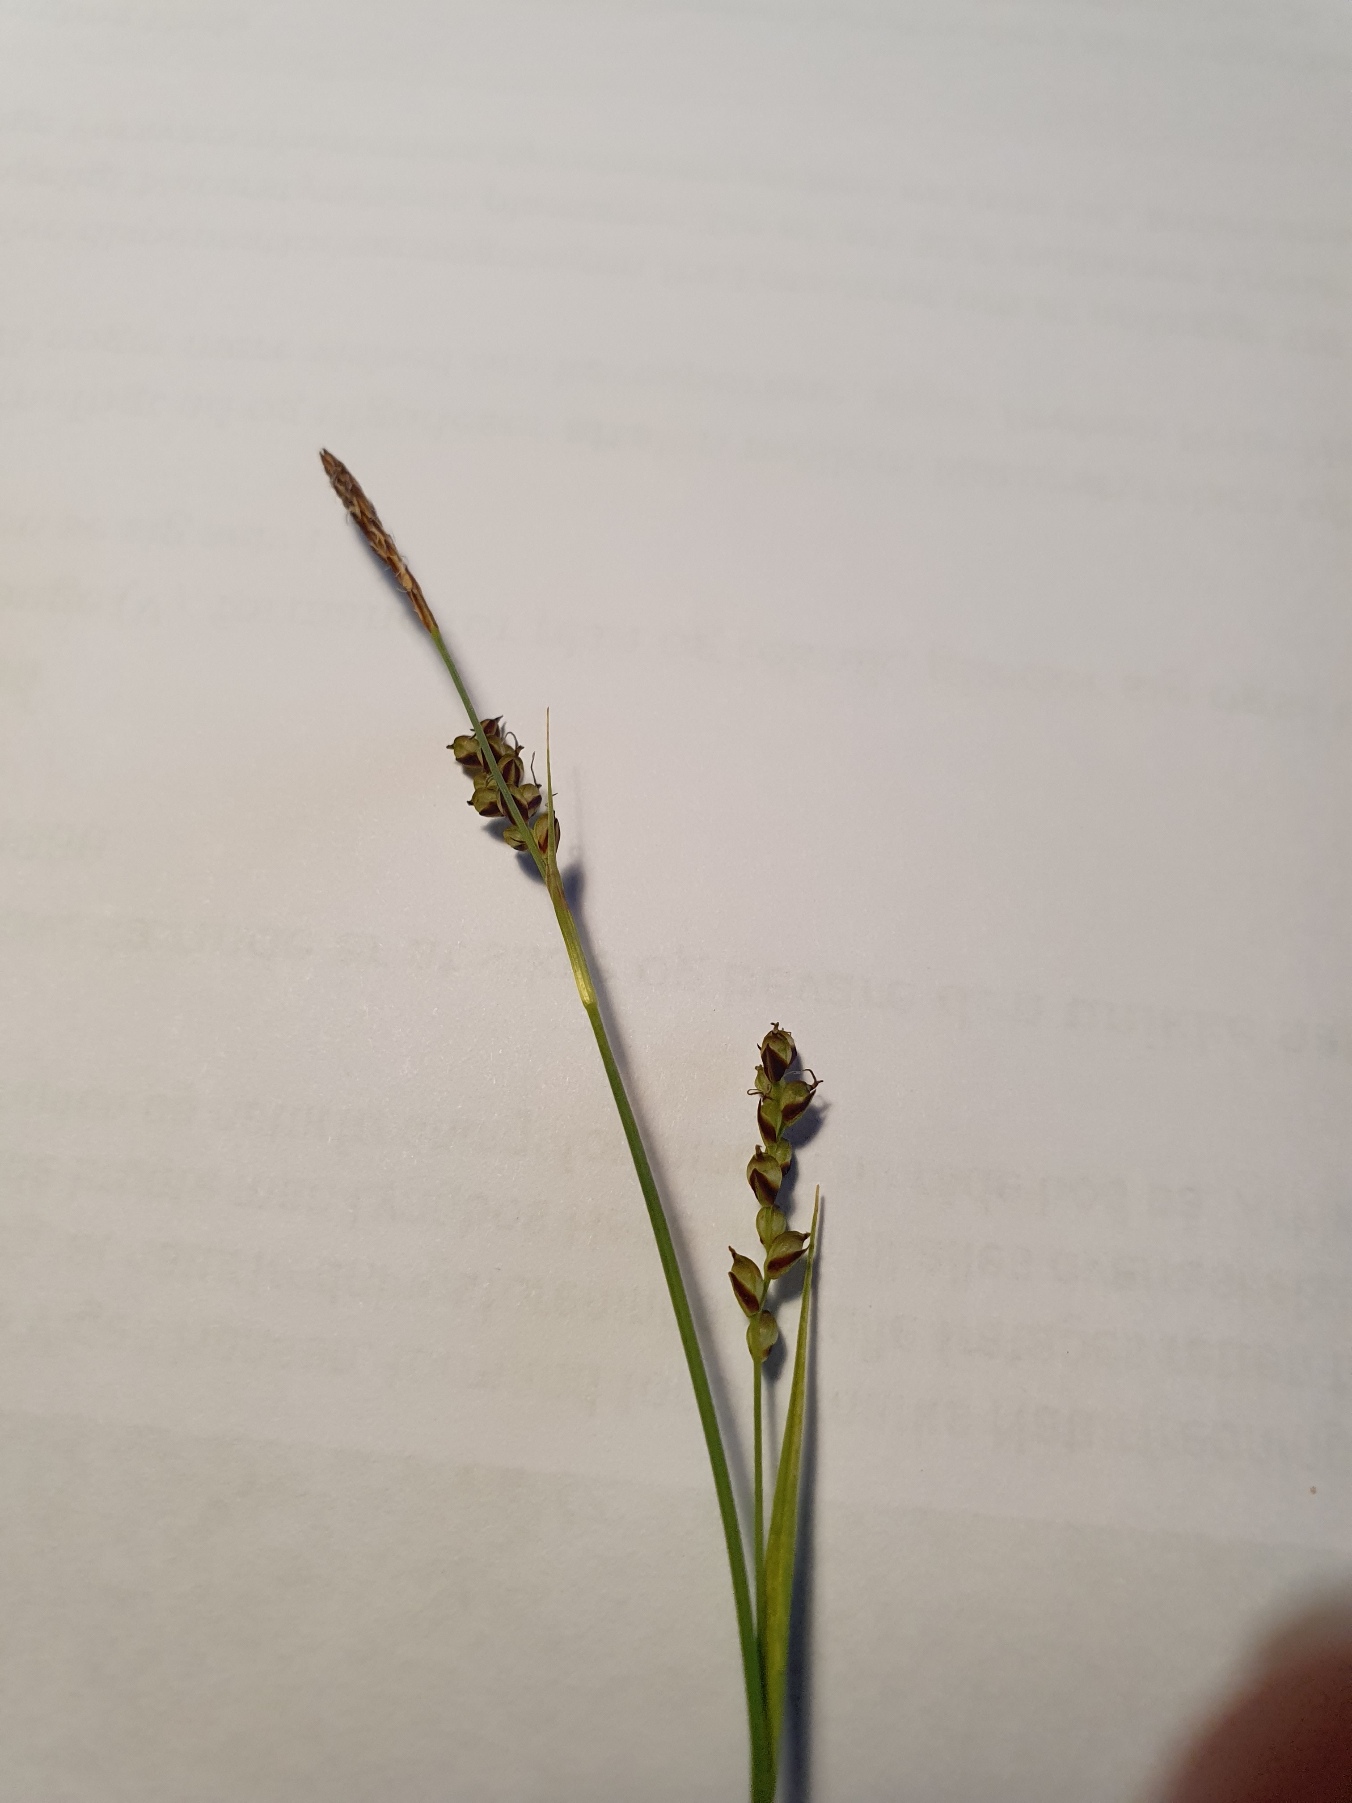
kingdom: Plantae
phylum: Tracheophyta
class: Liliopsida
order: Poales
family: Cyperaceae
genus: Carex
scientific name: Carex panicea
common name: Hirse-star
